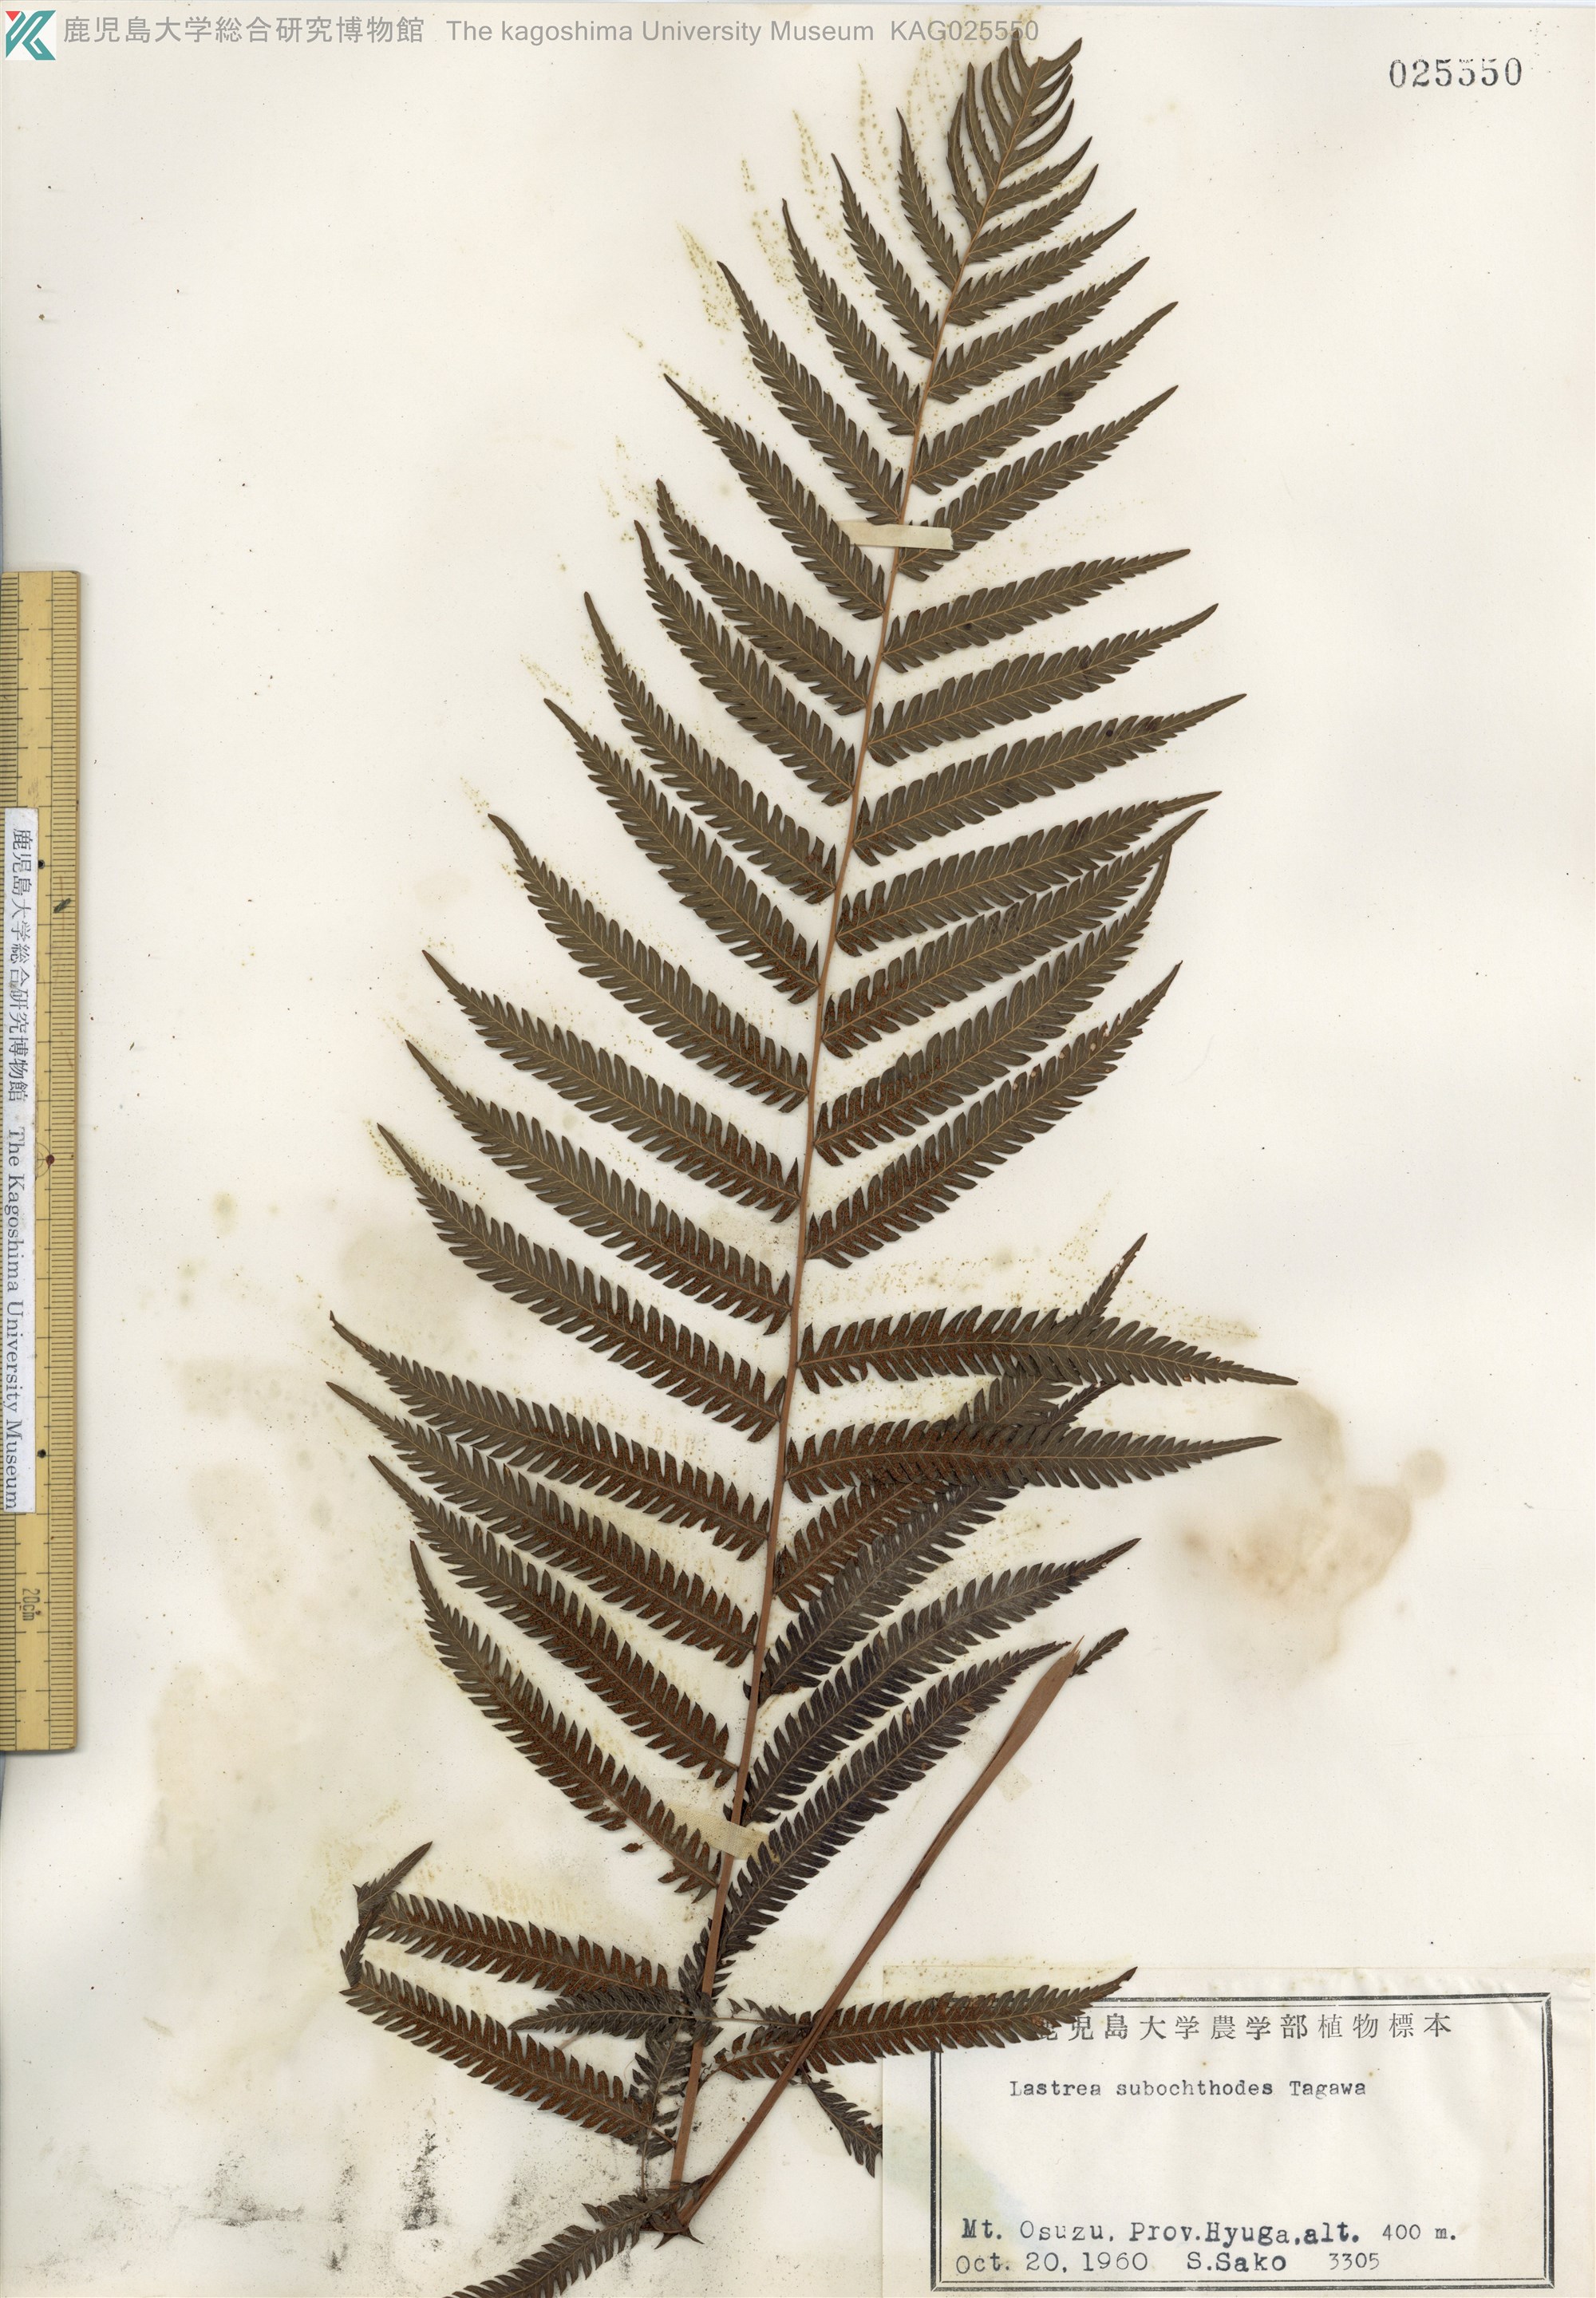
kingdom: Plantae
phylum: Tracheophyta
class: Polypodiopsida
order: Polypodiales
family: Thelypteridaceae
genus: Pseudocyclosorus
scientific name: Pseudocyclosorus esquirolii
